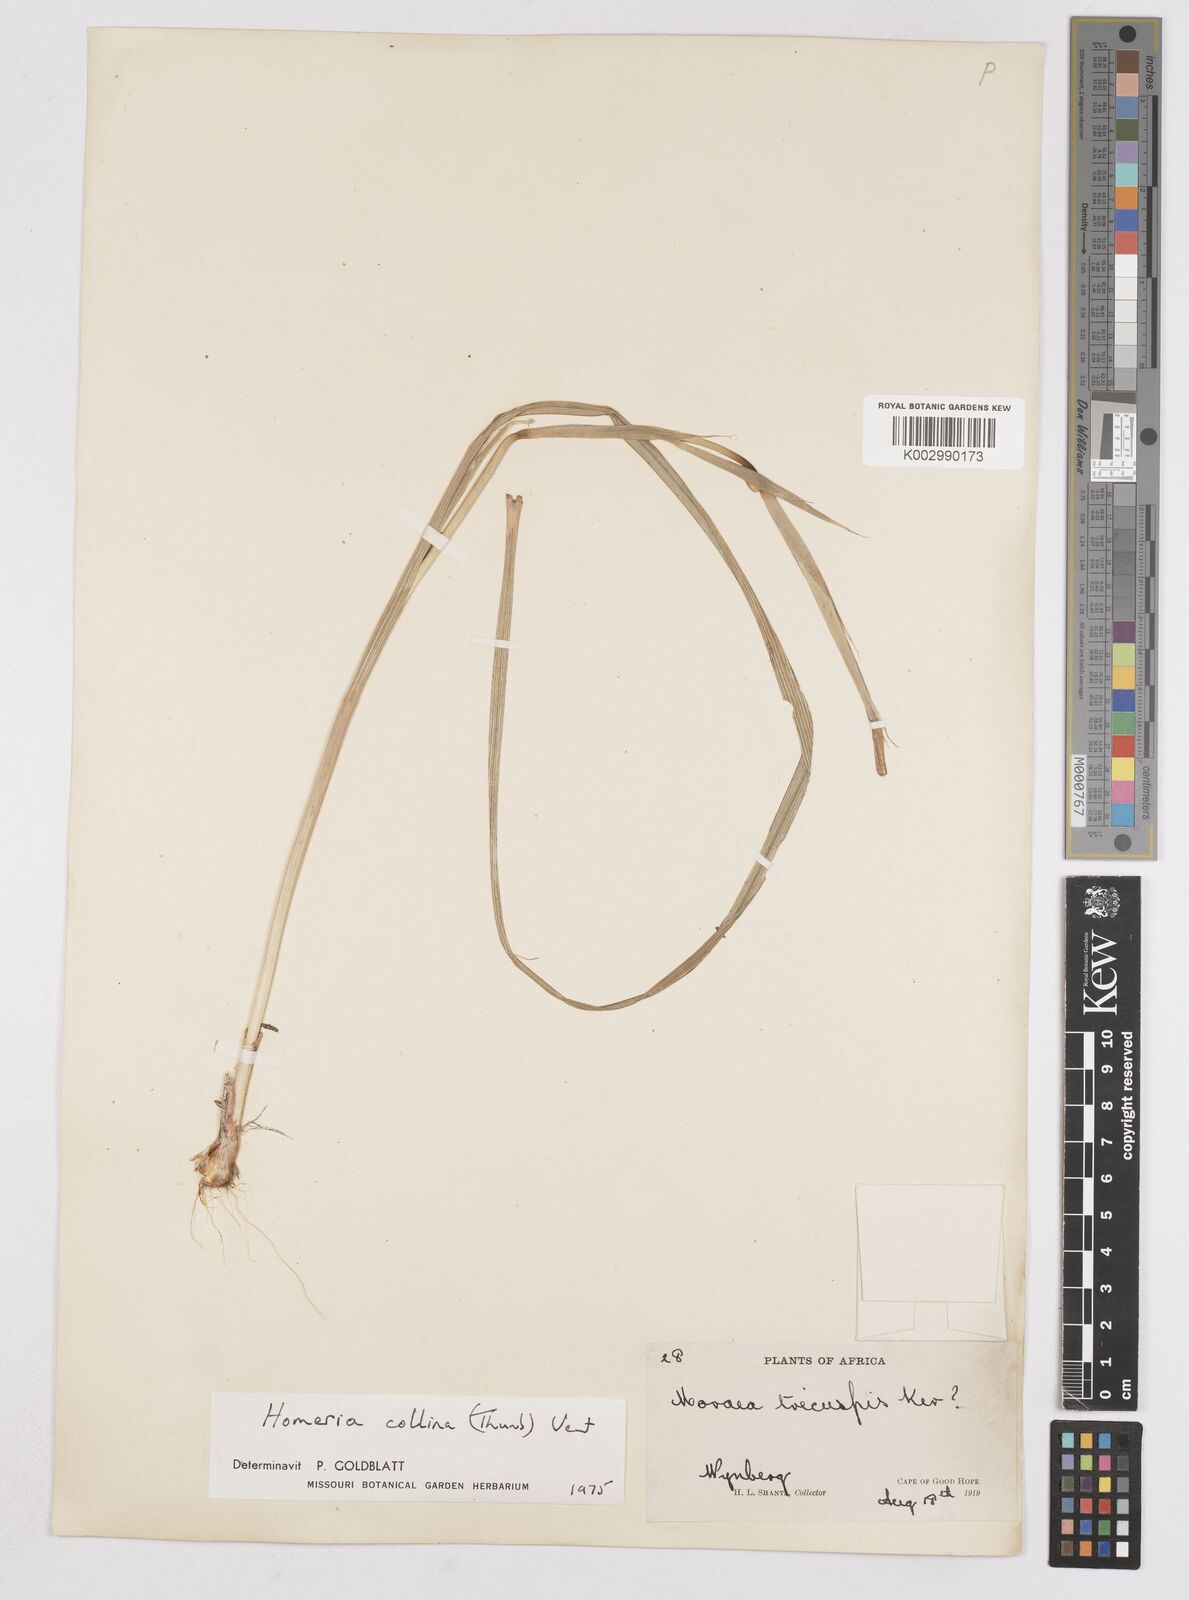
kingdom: Plantae
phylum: Tracheophyta
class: Liliopsida
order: Asparagales
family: Iridaceae
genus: Moraea
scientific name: Moraea collina
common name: Cape-tulip
